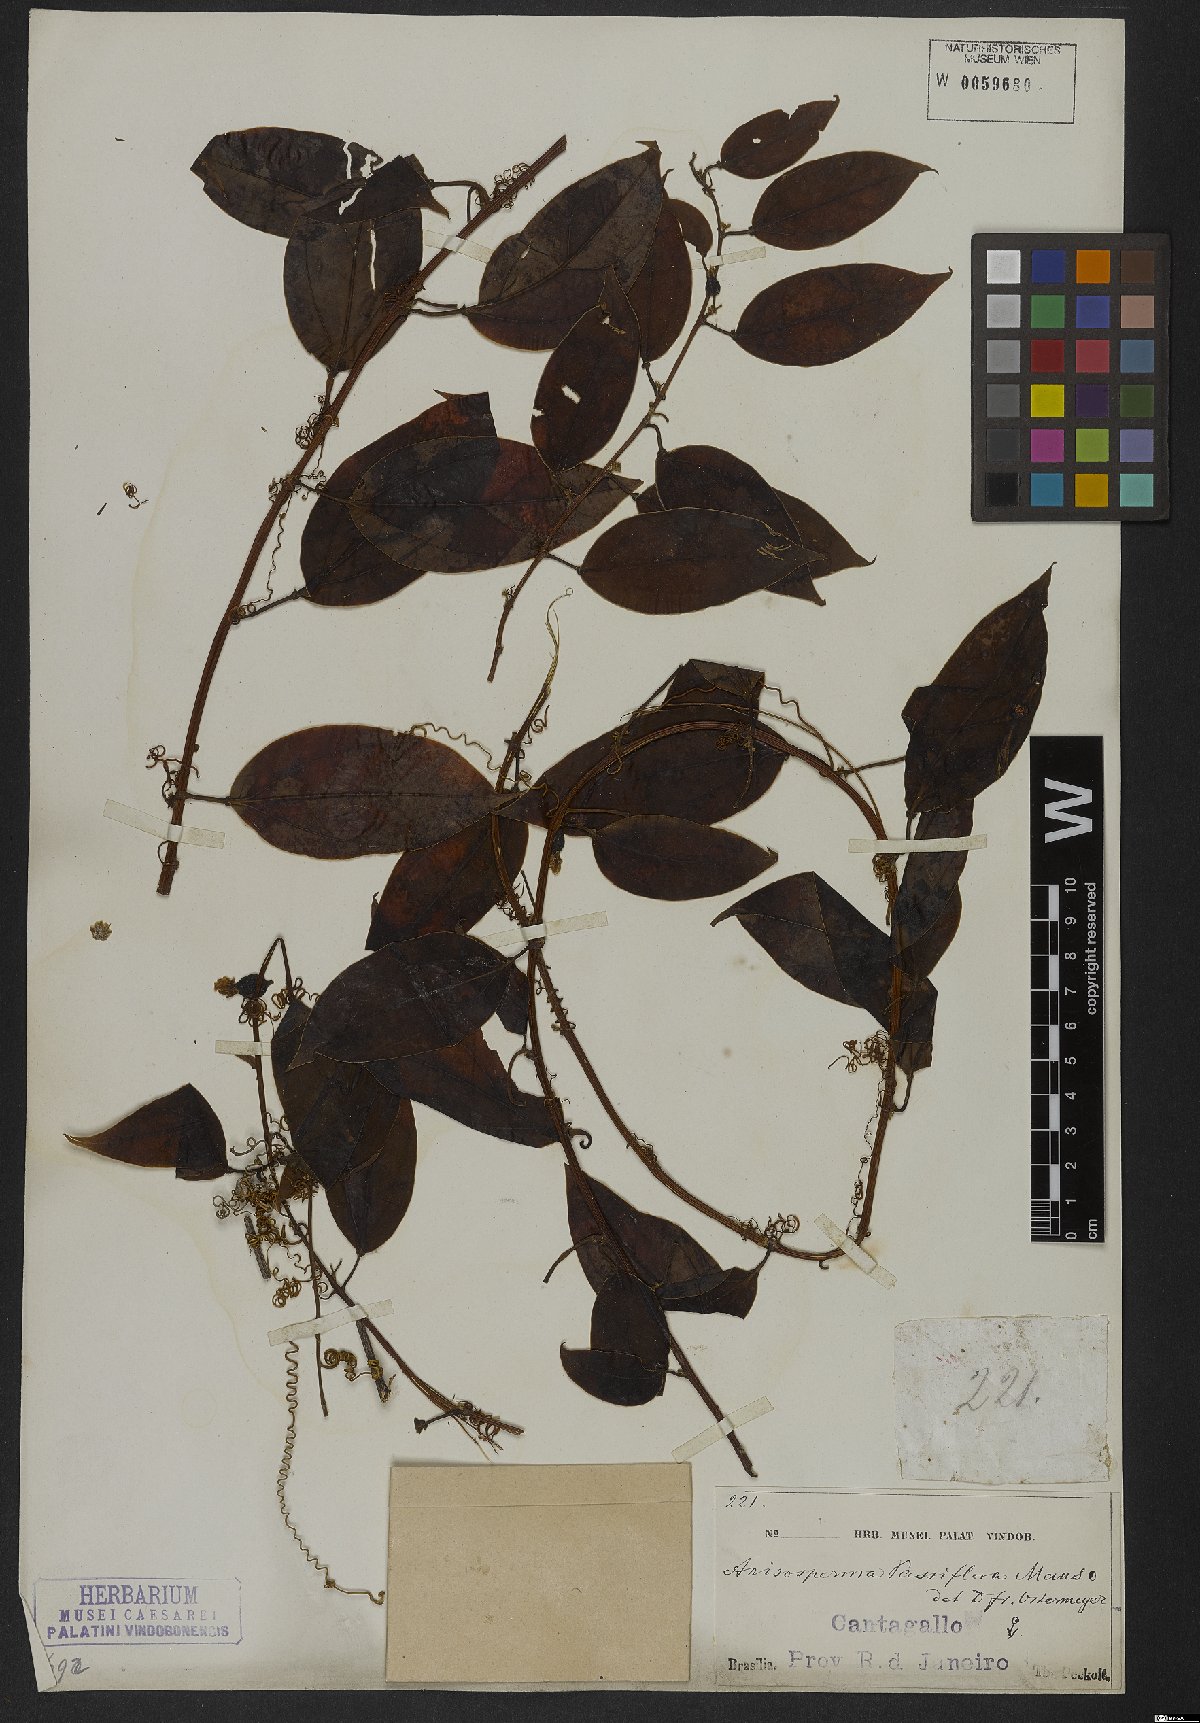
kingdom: Plantae
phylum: Tracheophyta
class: Magnoliopsida
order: Cucurbitales
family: Cucurbitaceae
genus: Anisosperma
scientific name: Anisosperma passiflora
